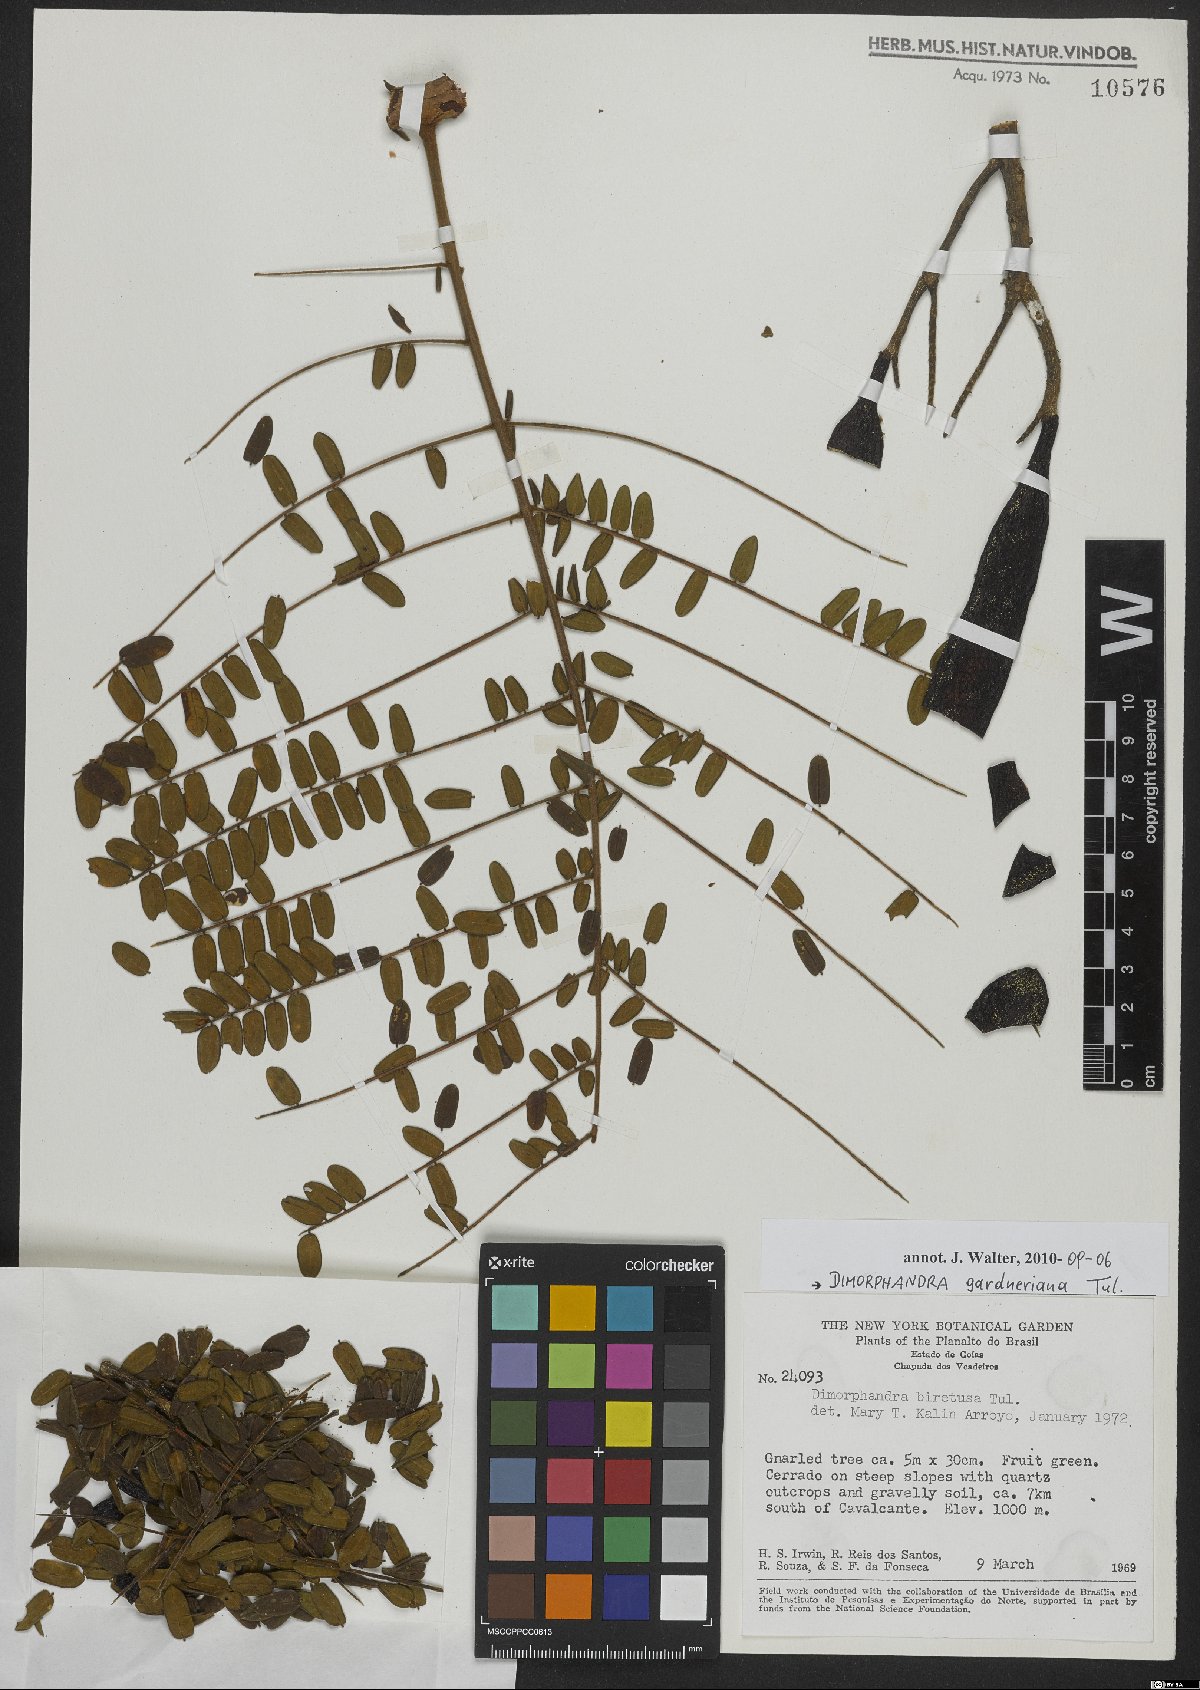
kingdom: Plantae
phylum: Tracheophyta
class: Magnoliopsida
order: Fabales
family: Fabaceae
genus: Dimorphandra
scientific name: Dimorphandra gardneriana
